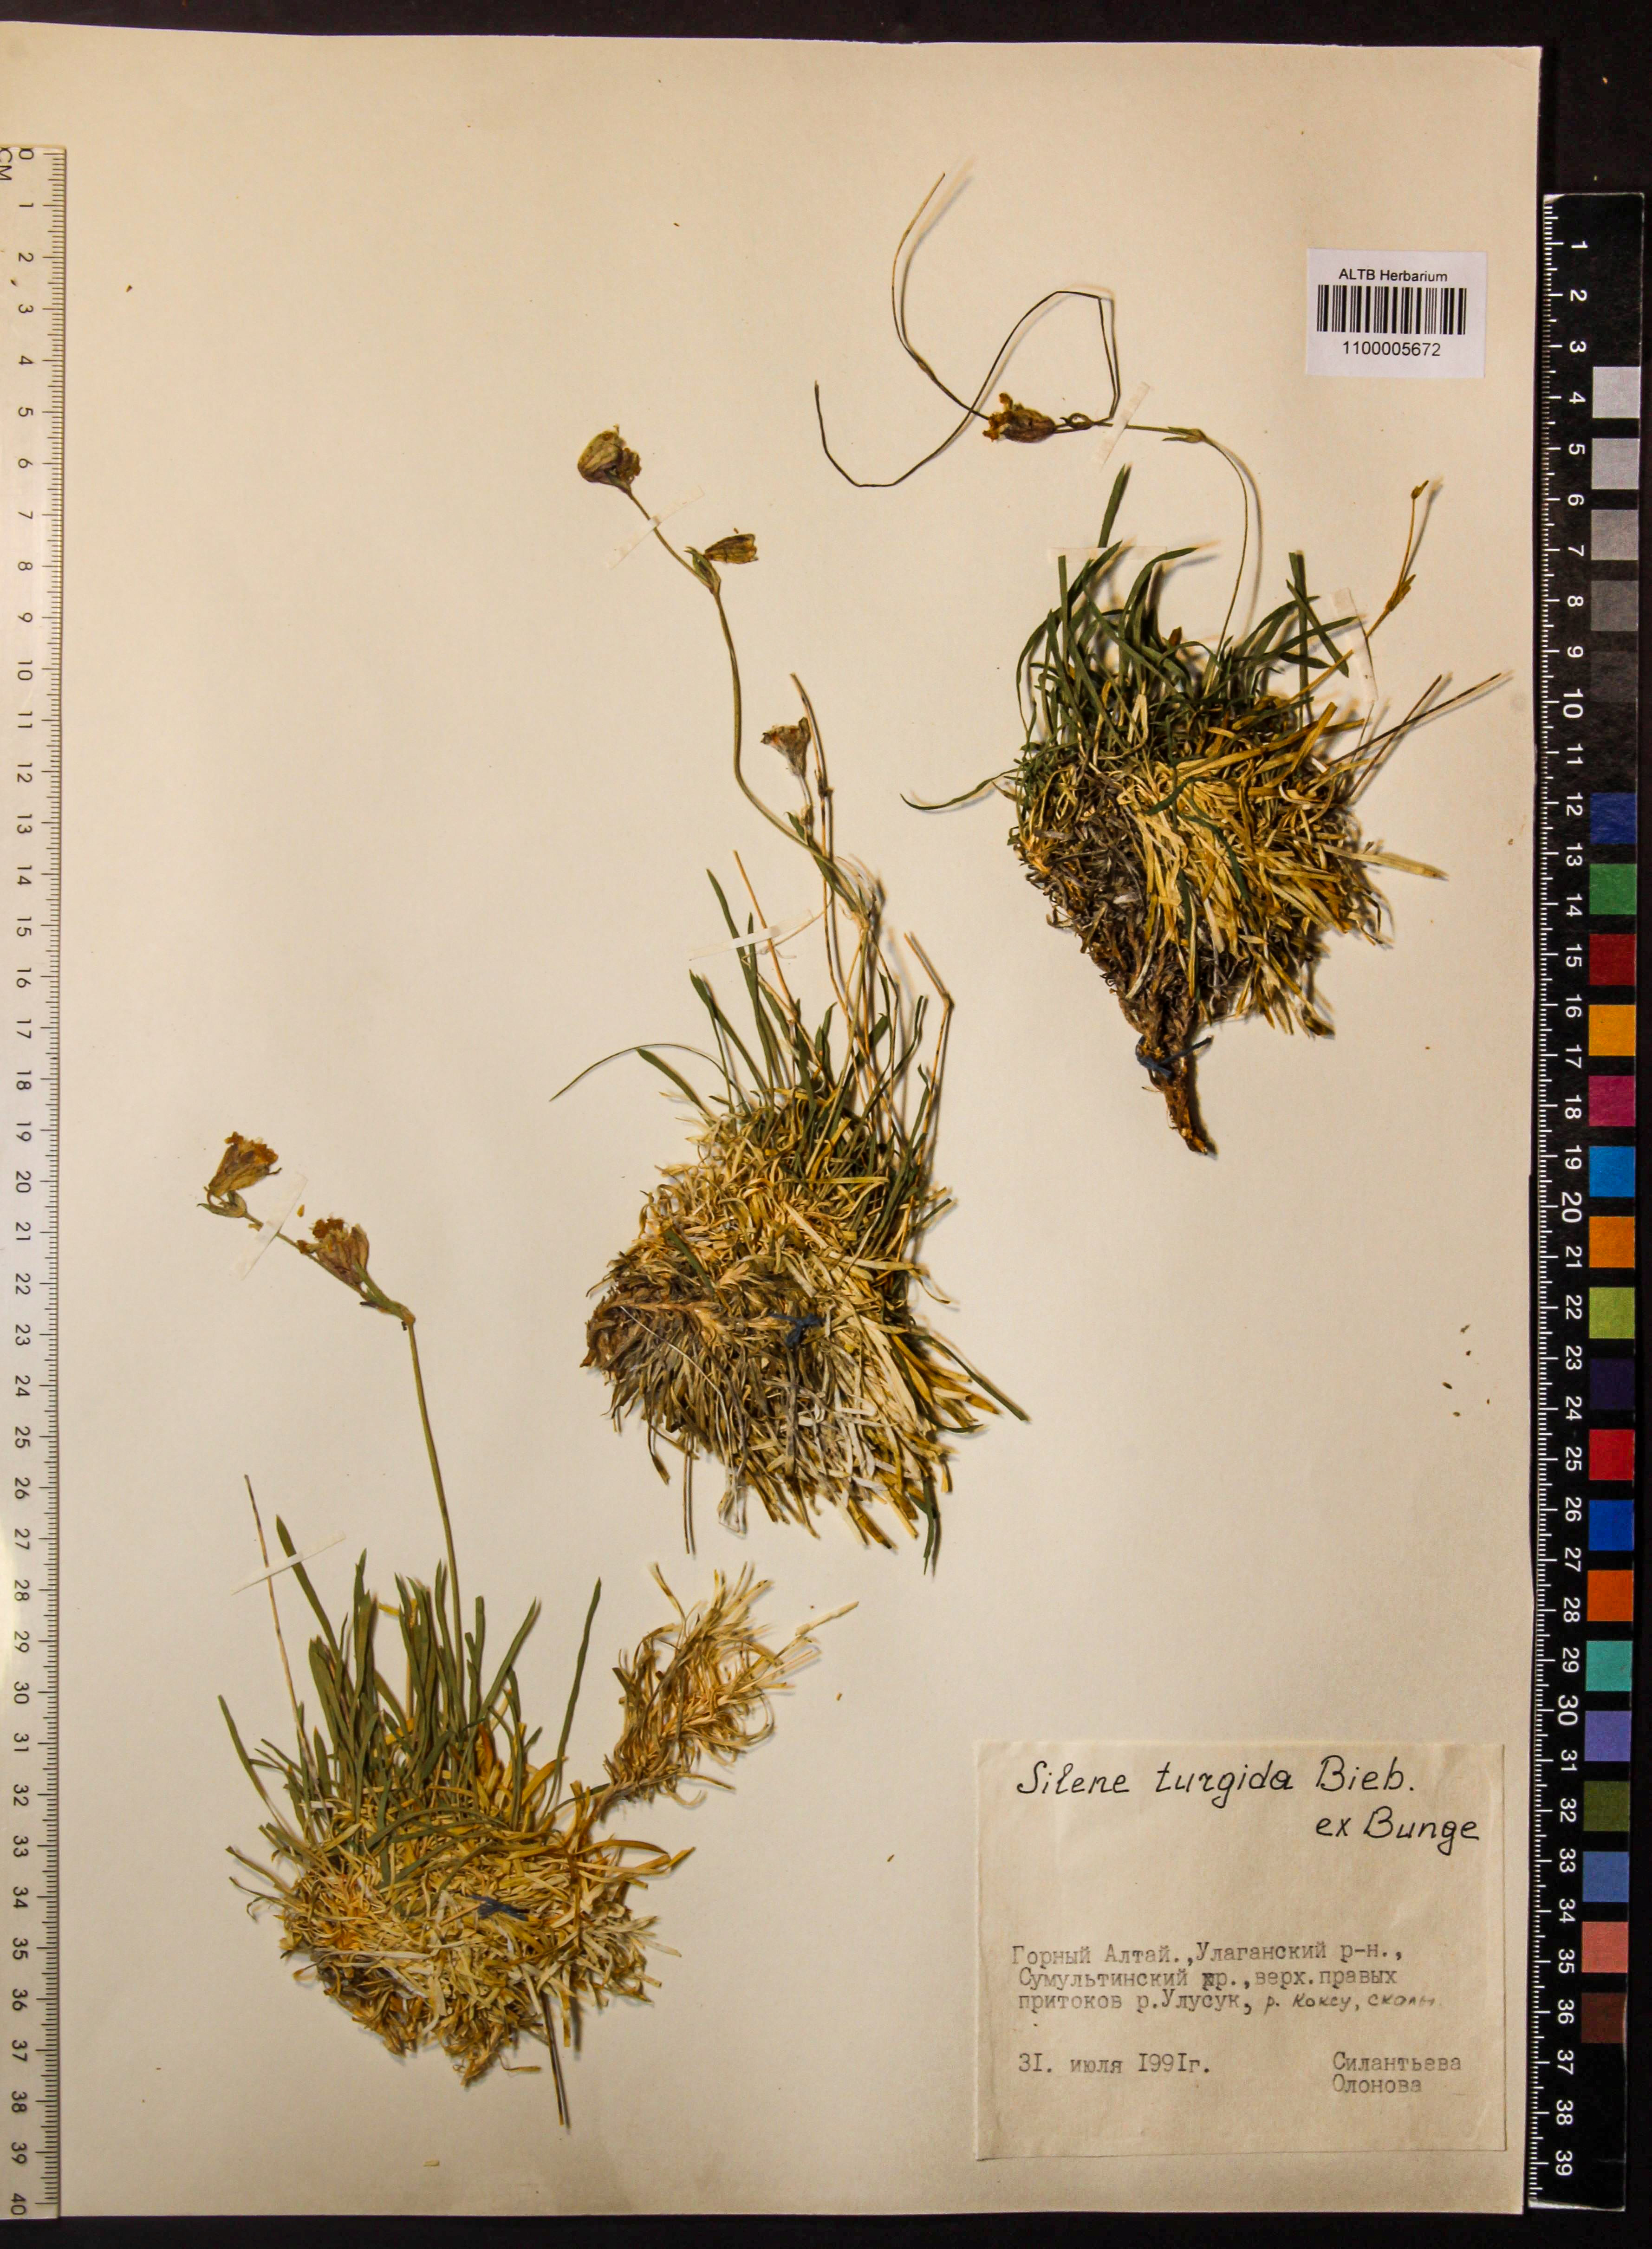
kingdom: Plantae
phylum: Tracheophyta
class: Magnoliopsida
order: Caryophyllales
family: Caryophyllaceae
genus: Silene
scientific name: Silene turgida
